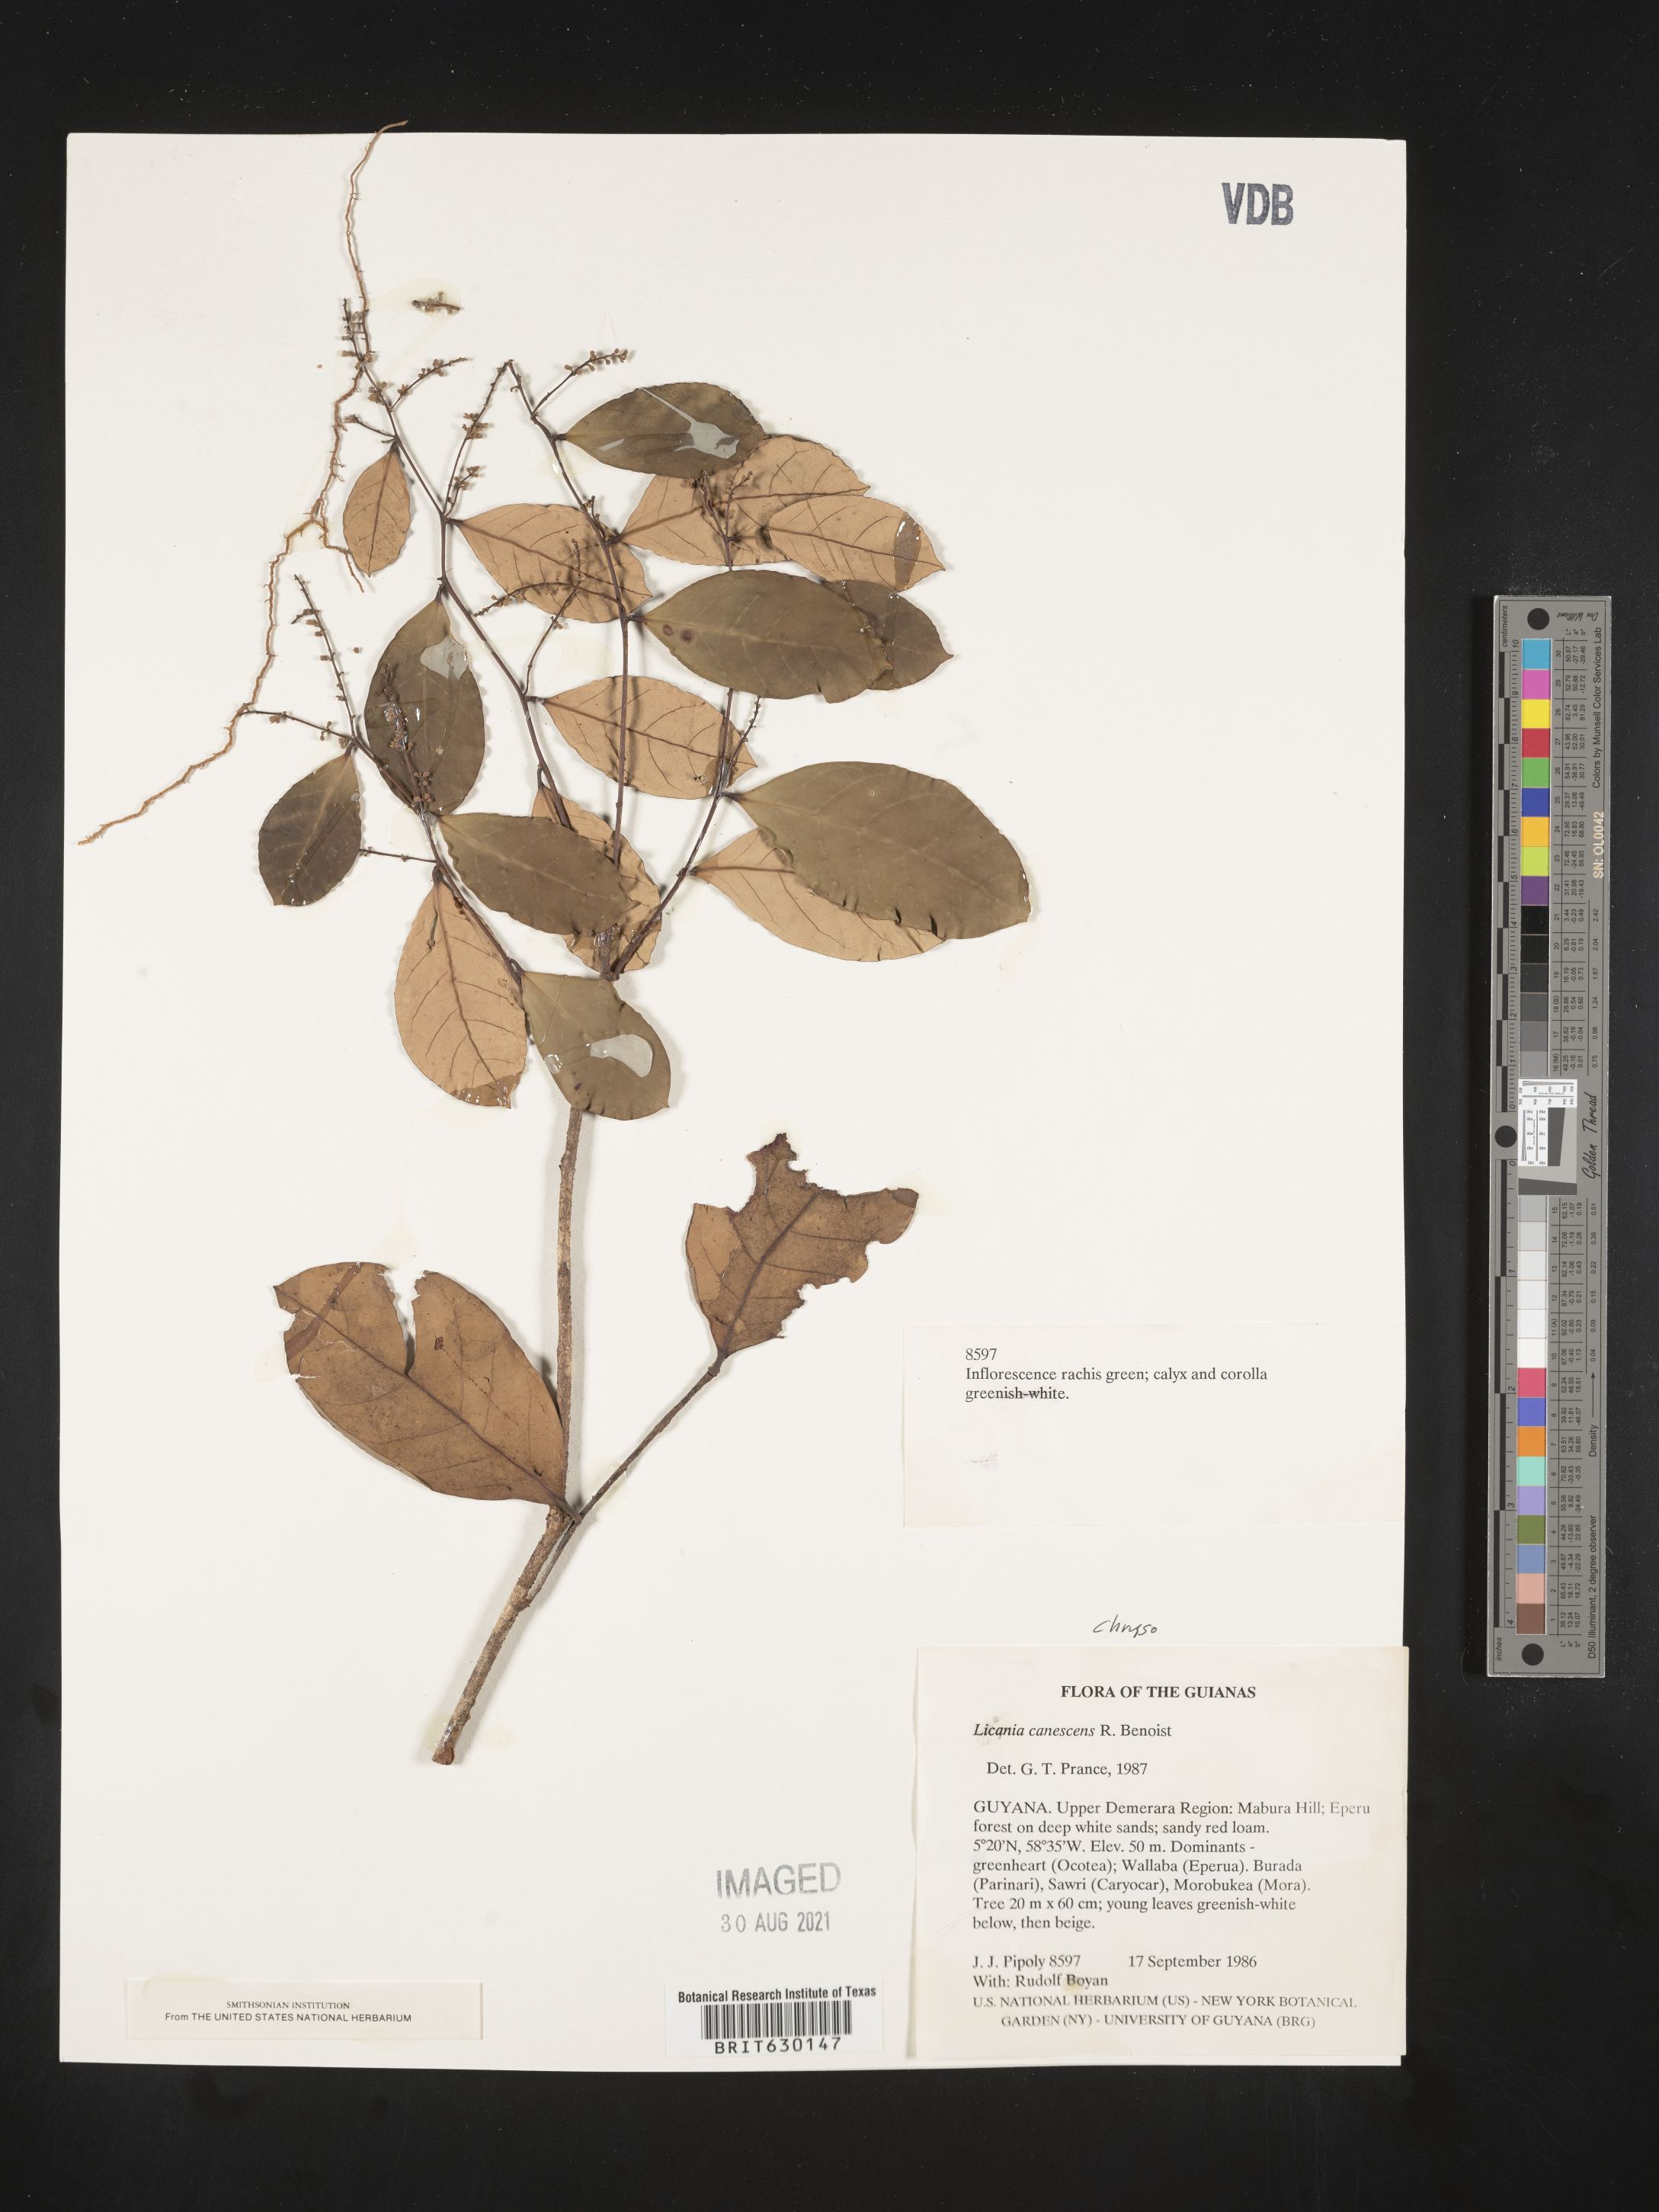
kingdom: Plantae
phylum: Tracheophyta
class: Magnoliopsida
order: Malpighiales
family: Chrysobalanaceae
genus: Licania
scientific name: Licania canescens
